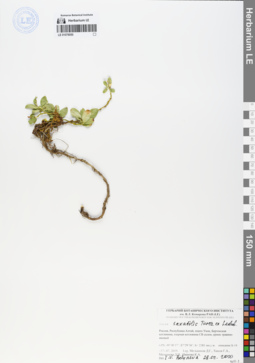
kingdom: Plantae
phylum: Tracheophyta
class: Magnoliopsida
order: Malpighiales
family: Salicaceae
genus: Salix
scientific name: Salix saxatilis
